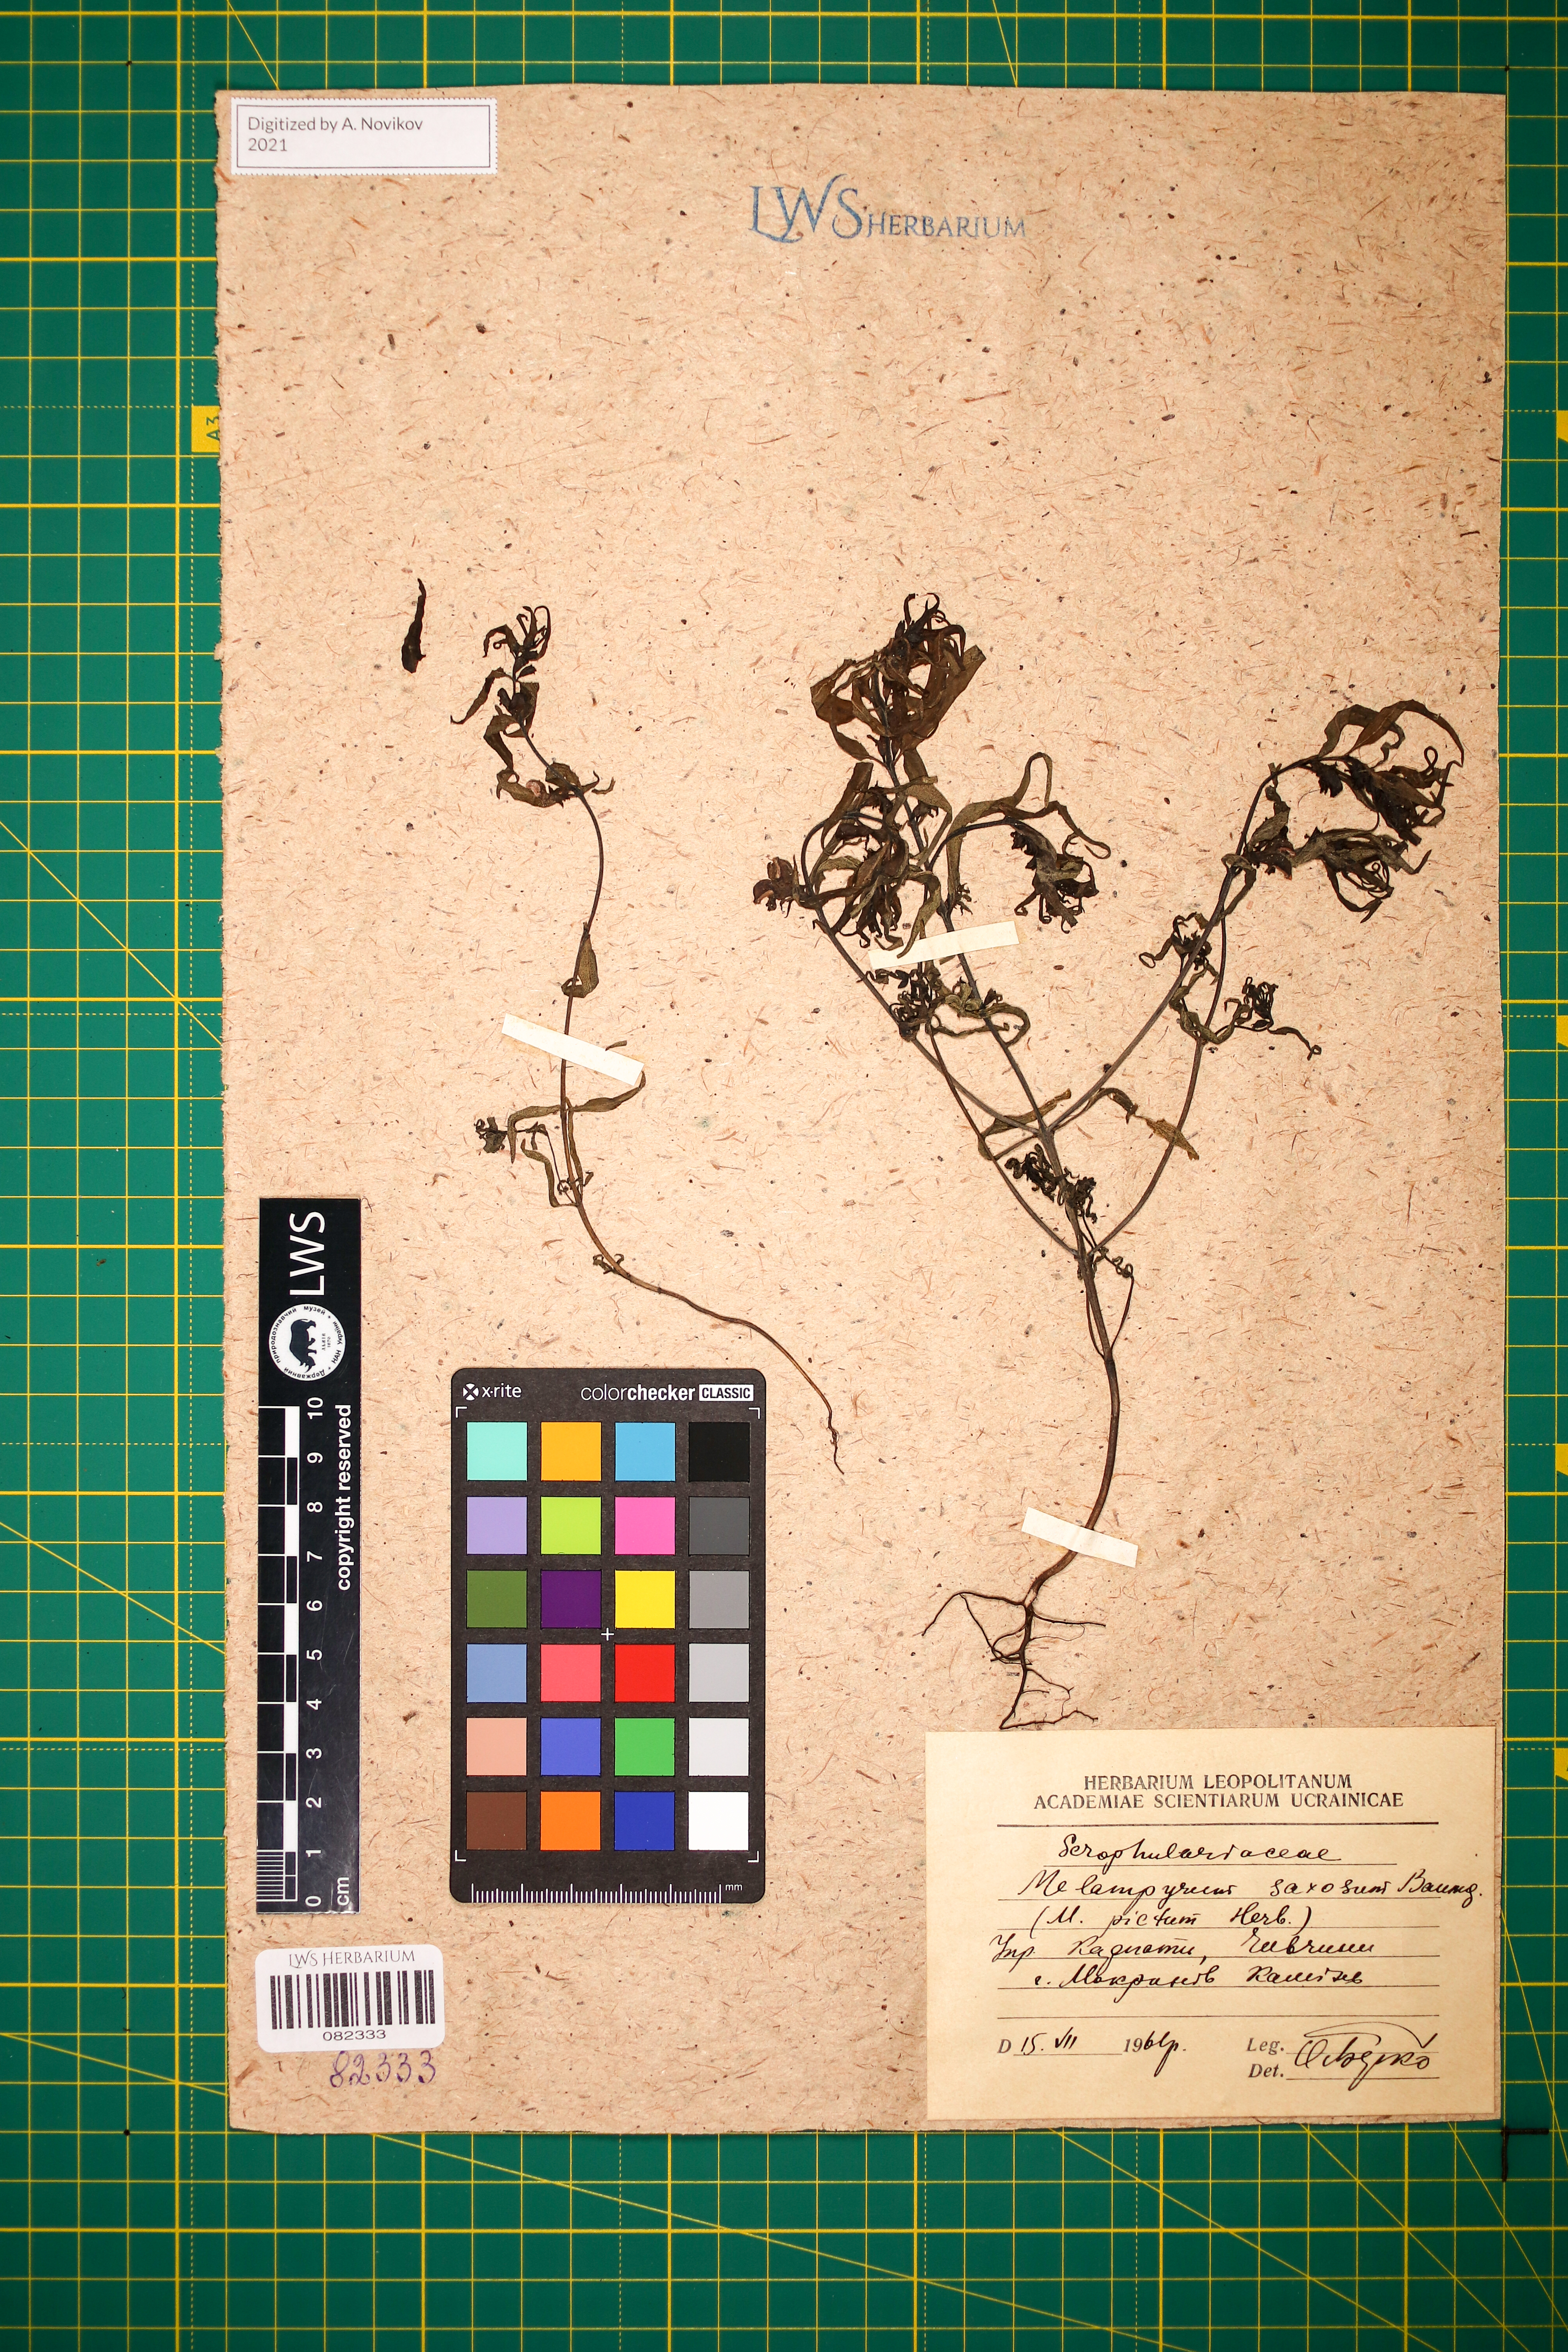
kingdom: Plantae
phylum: Tracheophyta
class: Magnoliopsida
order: Lamiales
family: Orobanchaceae
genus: Melampyrum
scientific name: Melampyrum saxosum
